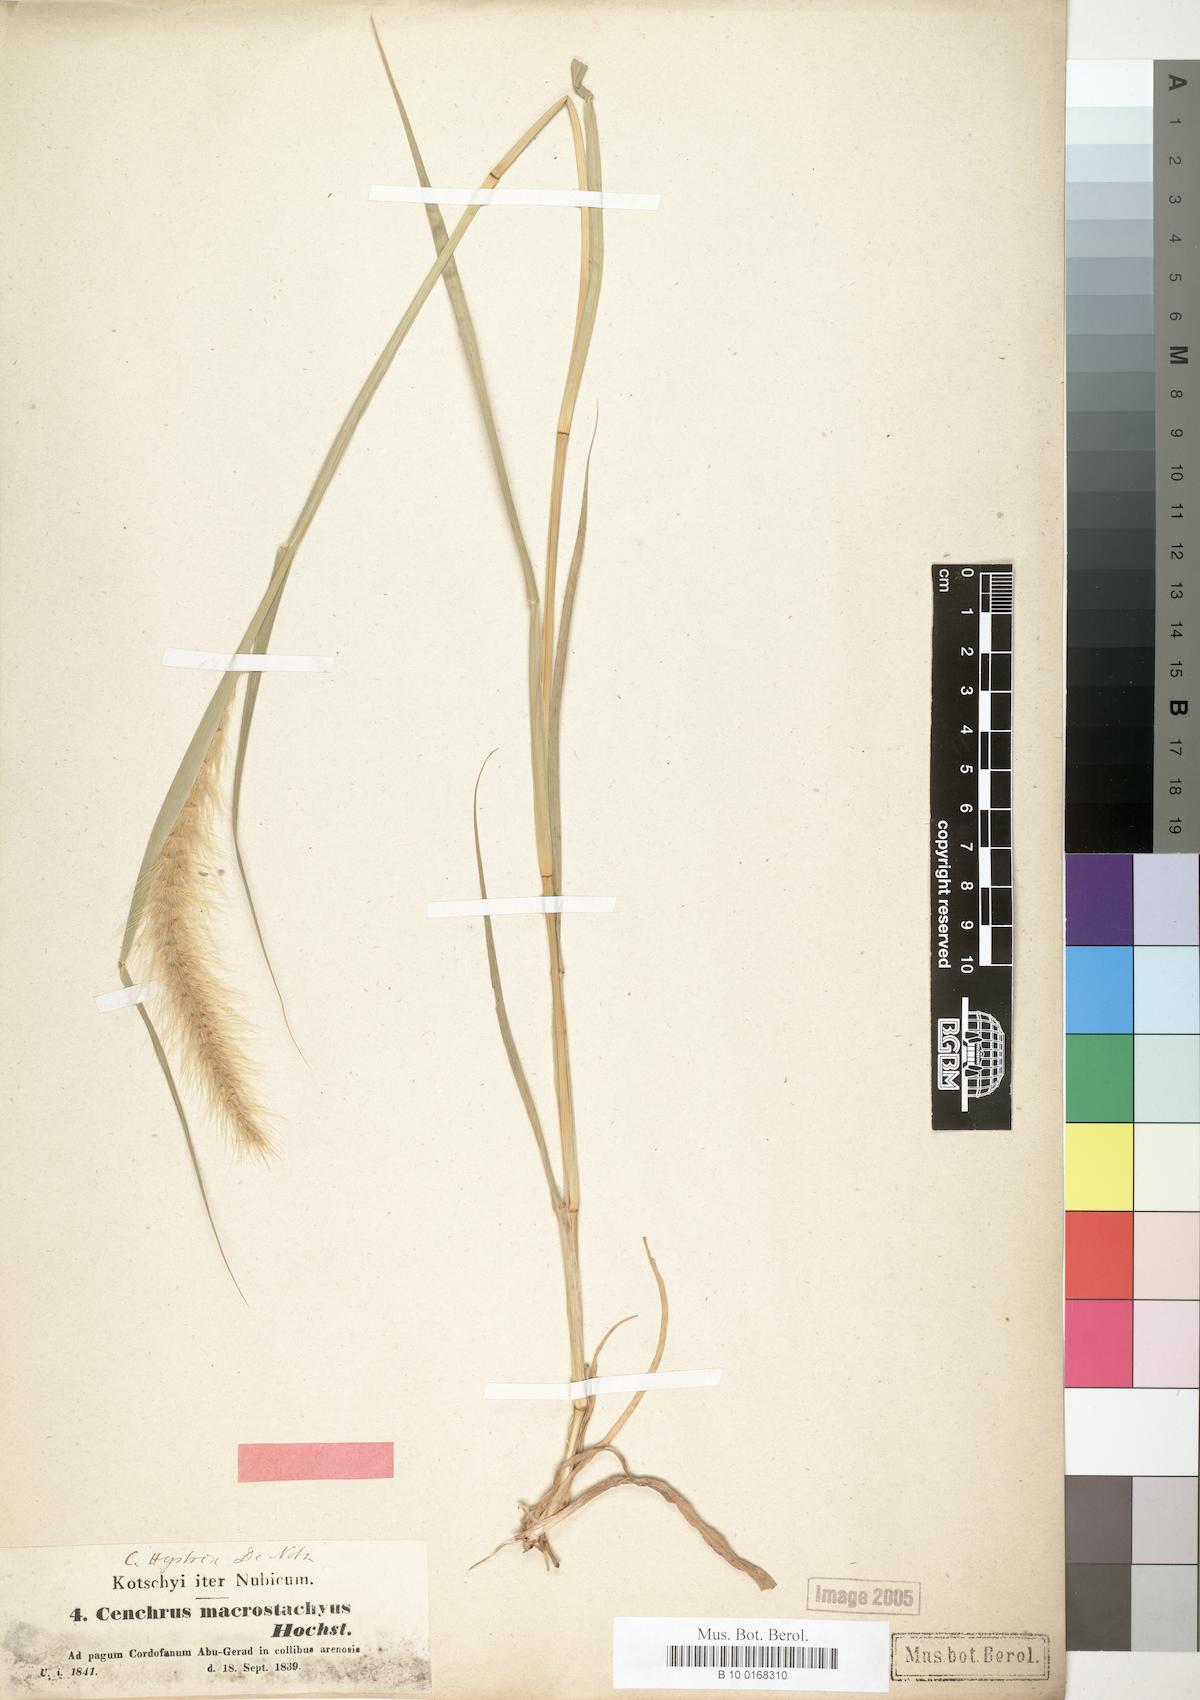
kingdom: Plantae
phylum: Tracheophyta
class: Liliopsida
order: Poales
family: Poaceae
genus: Cenchrus
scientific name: Cenchrus prieurii
